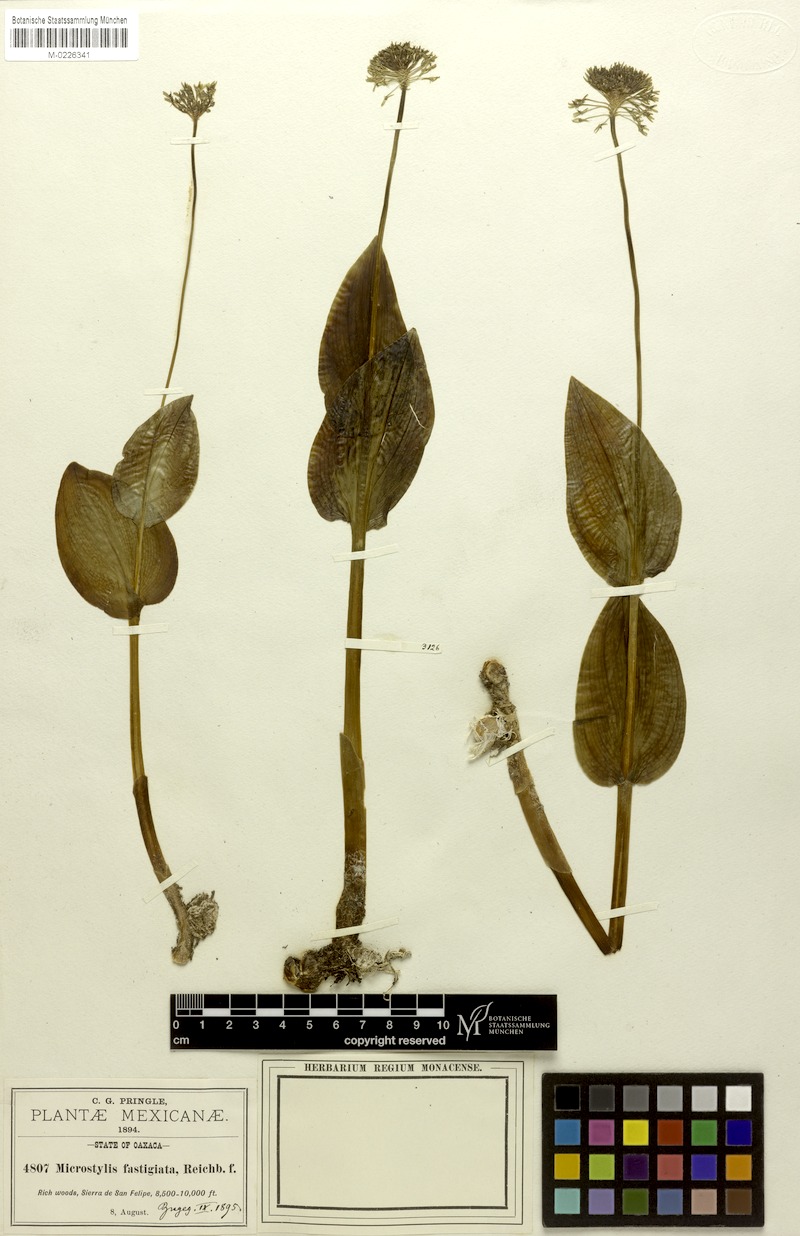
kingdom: Plantae
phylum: Tracheophyta
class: Liliopsida
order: Asparagales
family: Orchidaceae
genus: Malaxis
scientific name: Malaxis fastigiata
